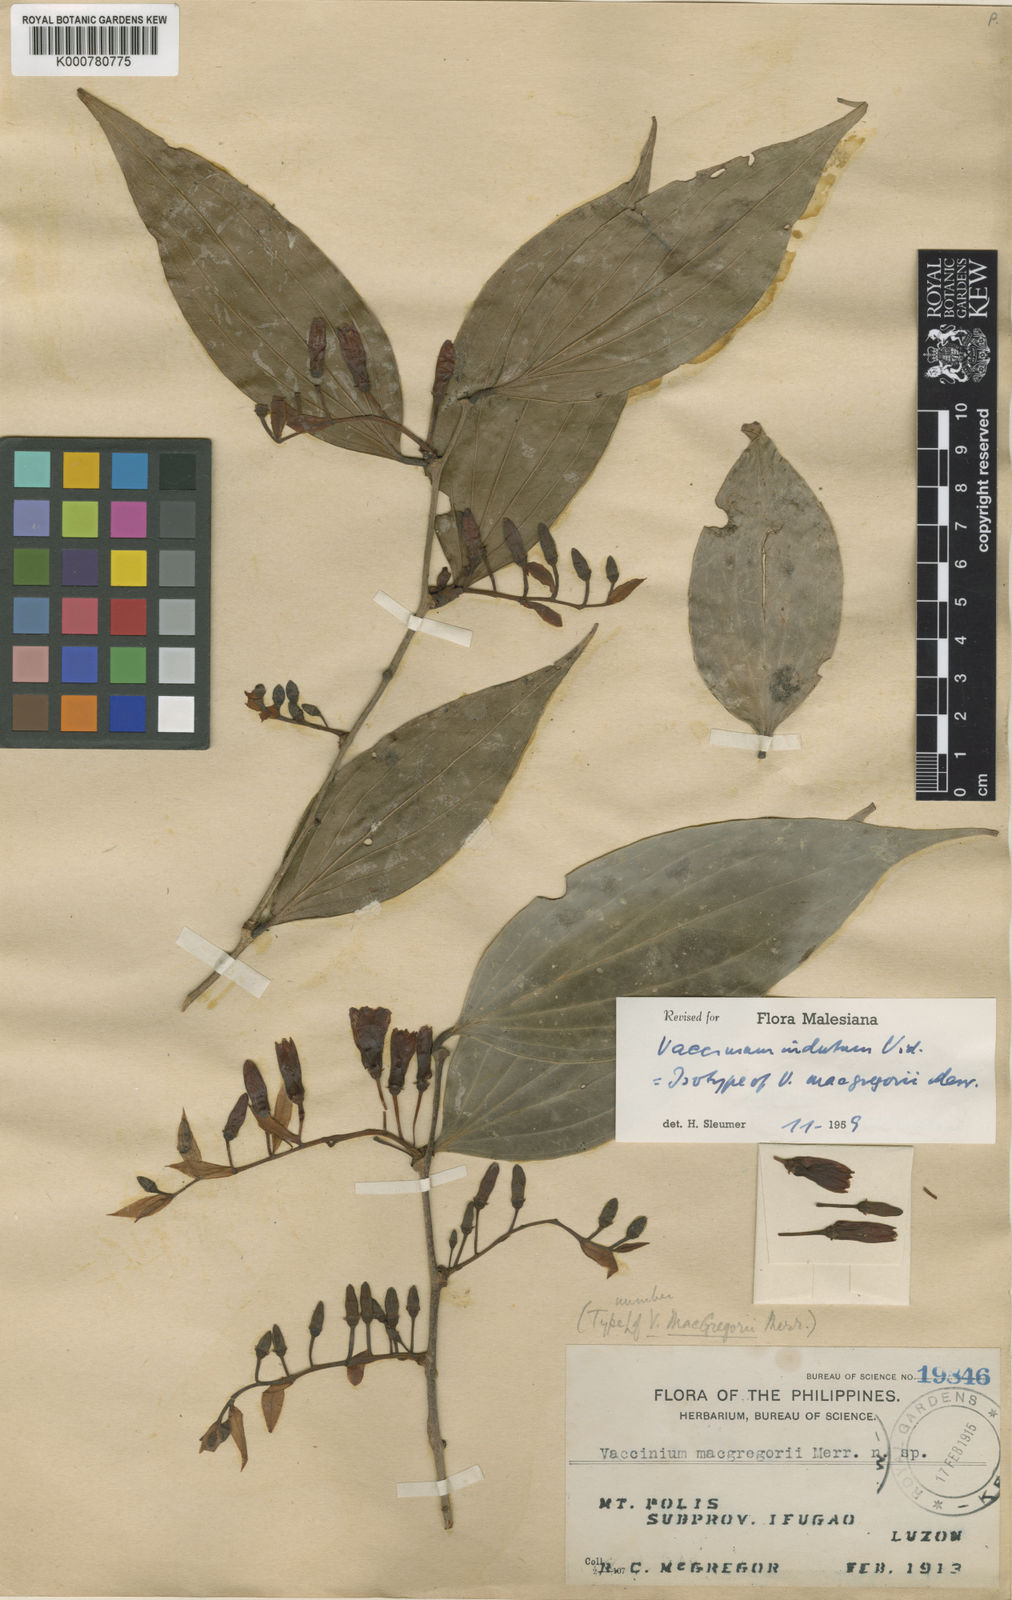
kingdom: Plantae
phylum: Tracheophyta
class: Magnoliopsida
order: Ericales
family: Ericaceae
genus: Vaccinium
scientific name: Vaccinium indutum
